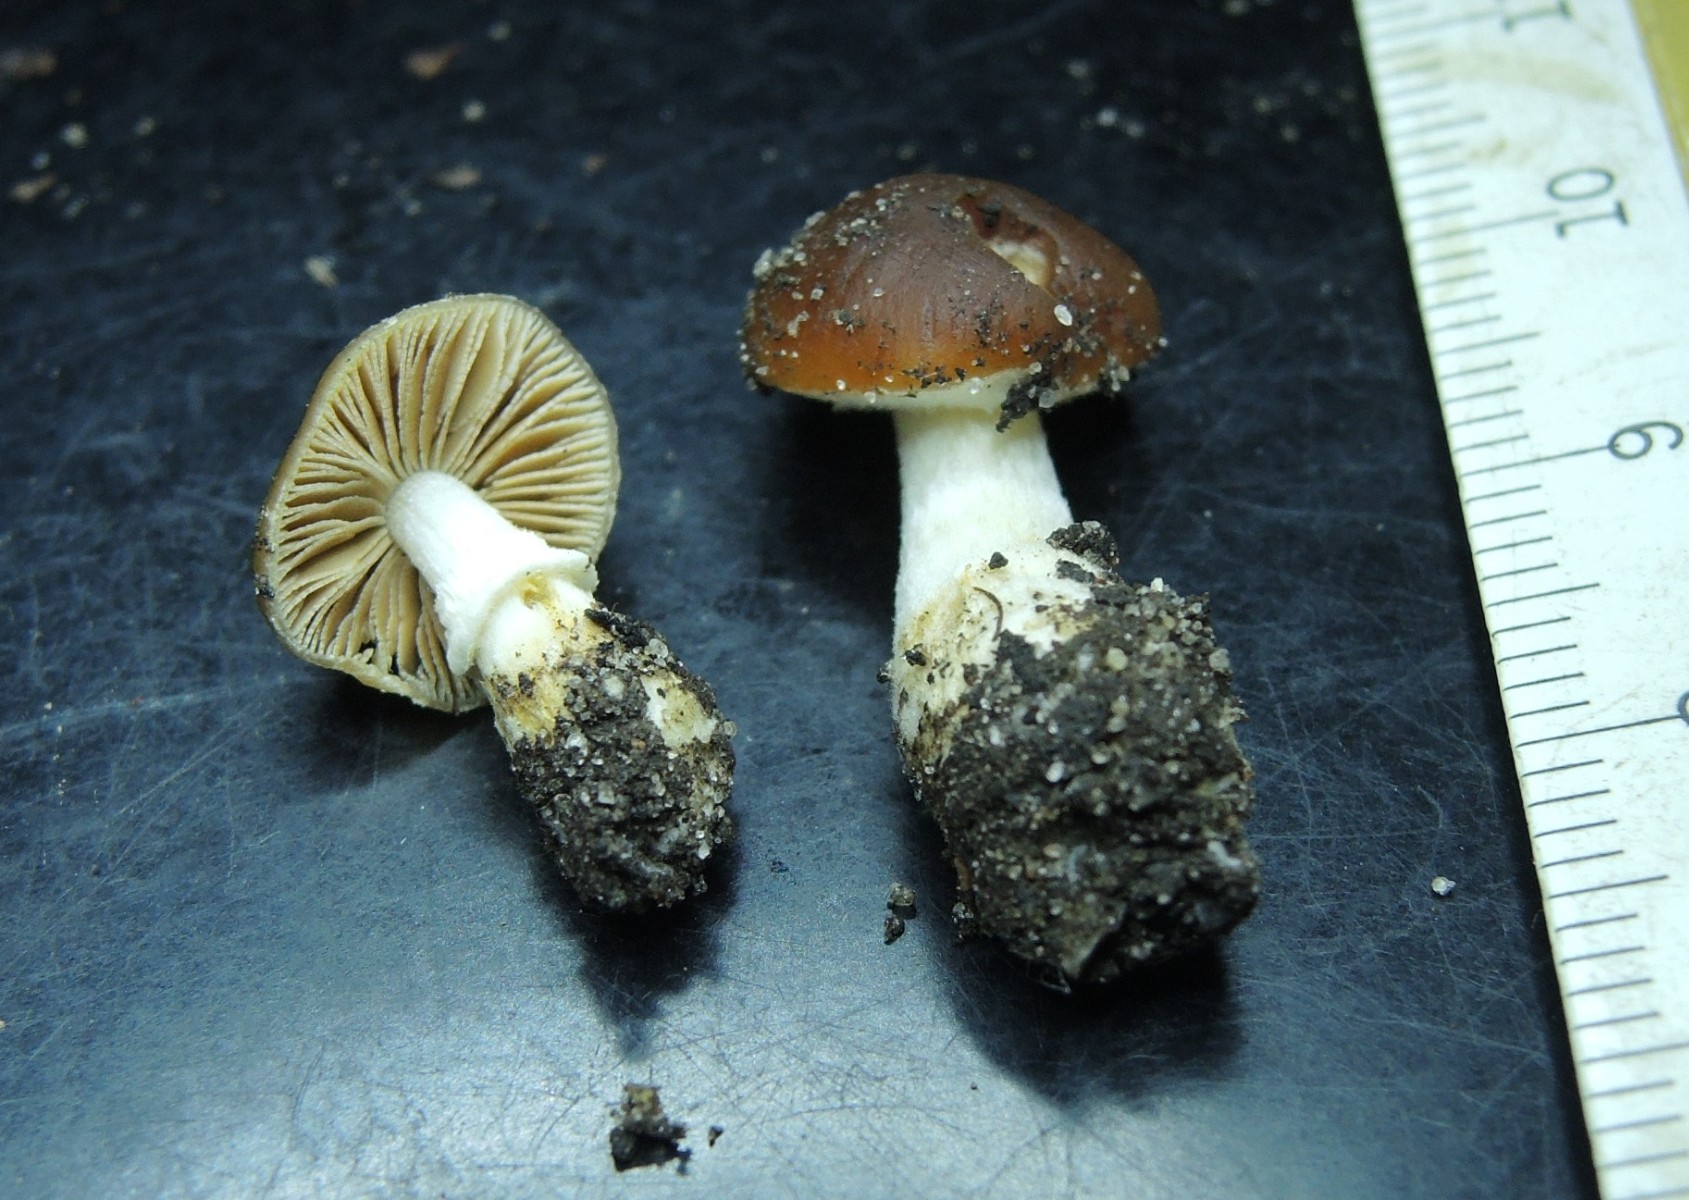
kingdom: Fungi
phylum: Basidiomycota
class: Agaricomycetes
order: Agaricales
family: Bolbitiaceae
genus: Conocybe
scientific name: Conocybe aporos
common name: tidlig dansehat
